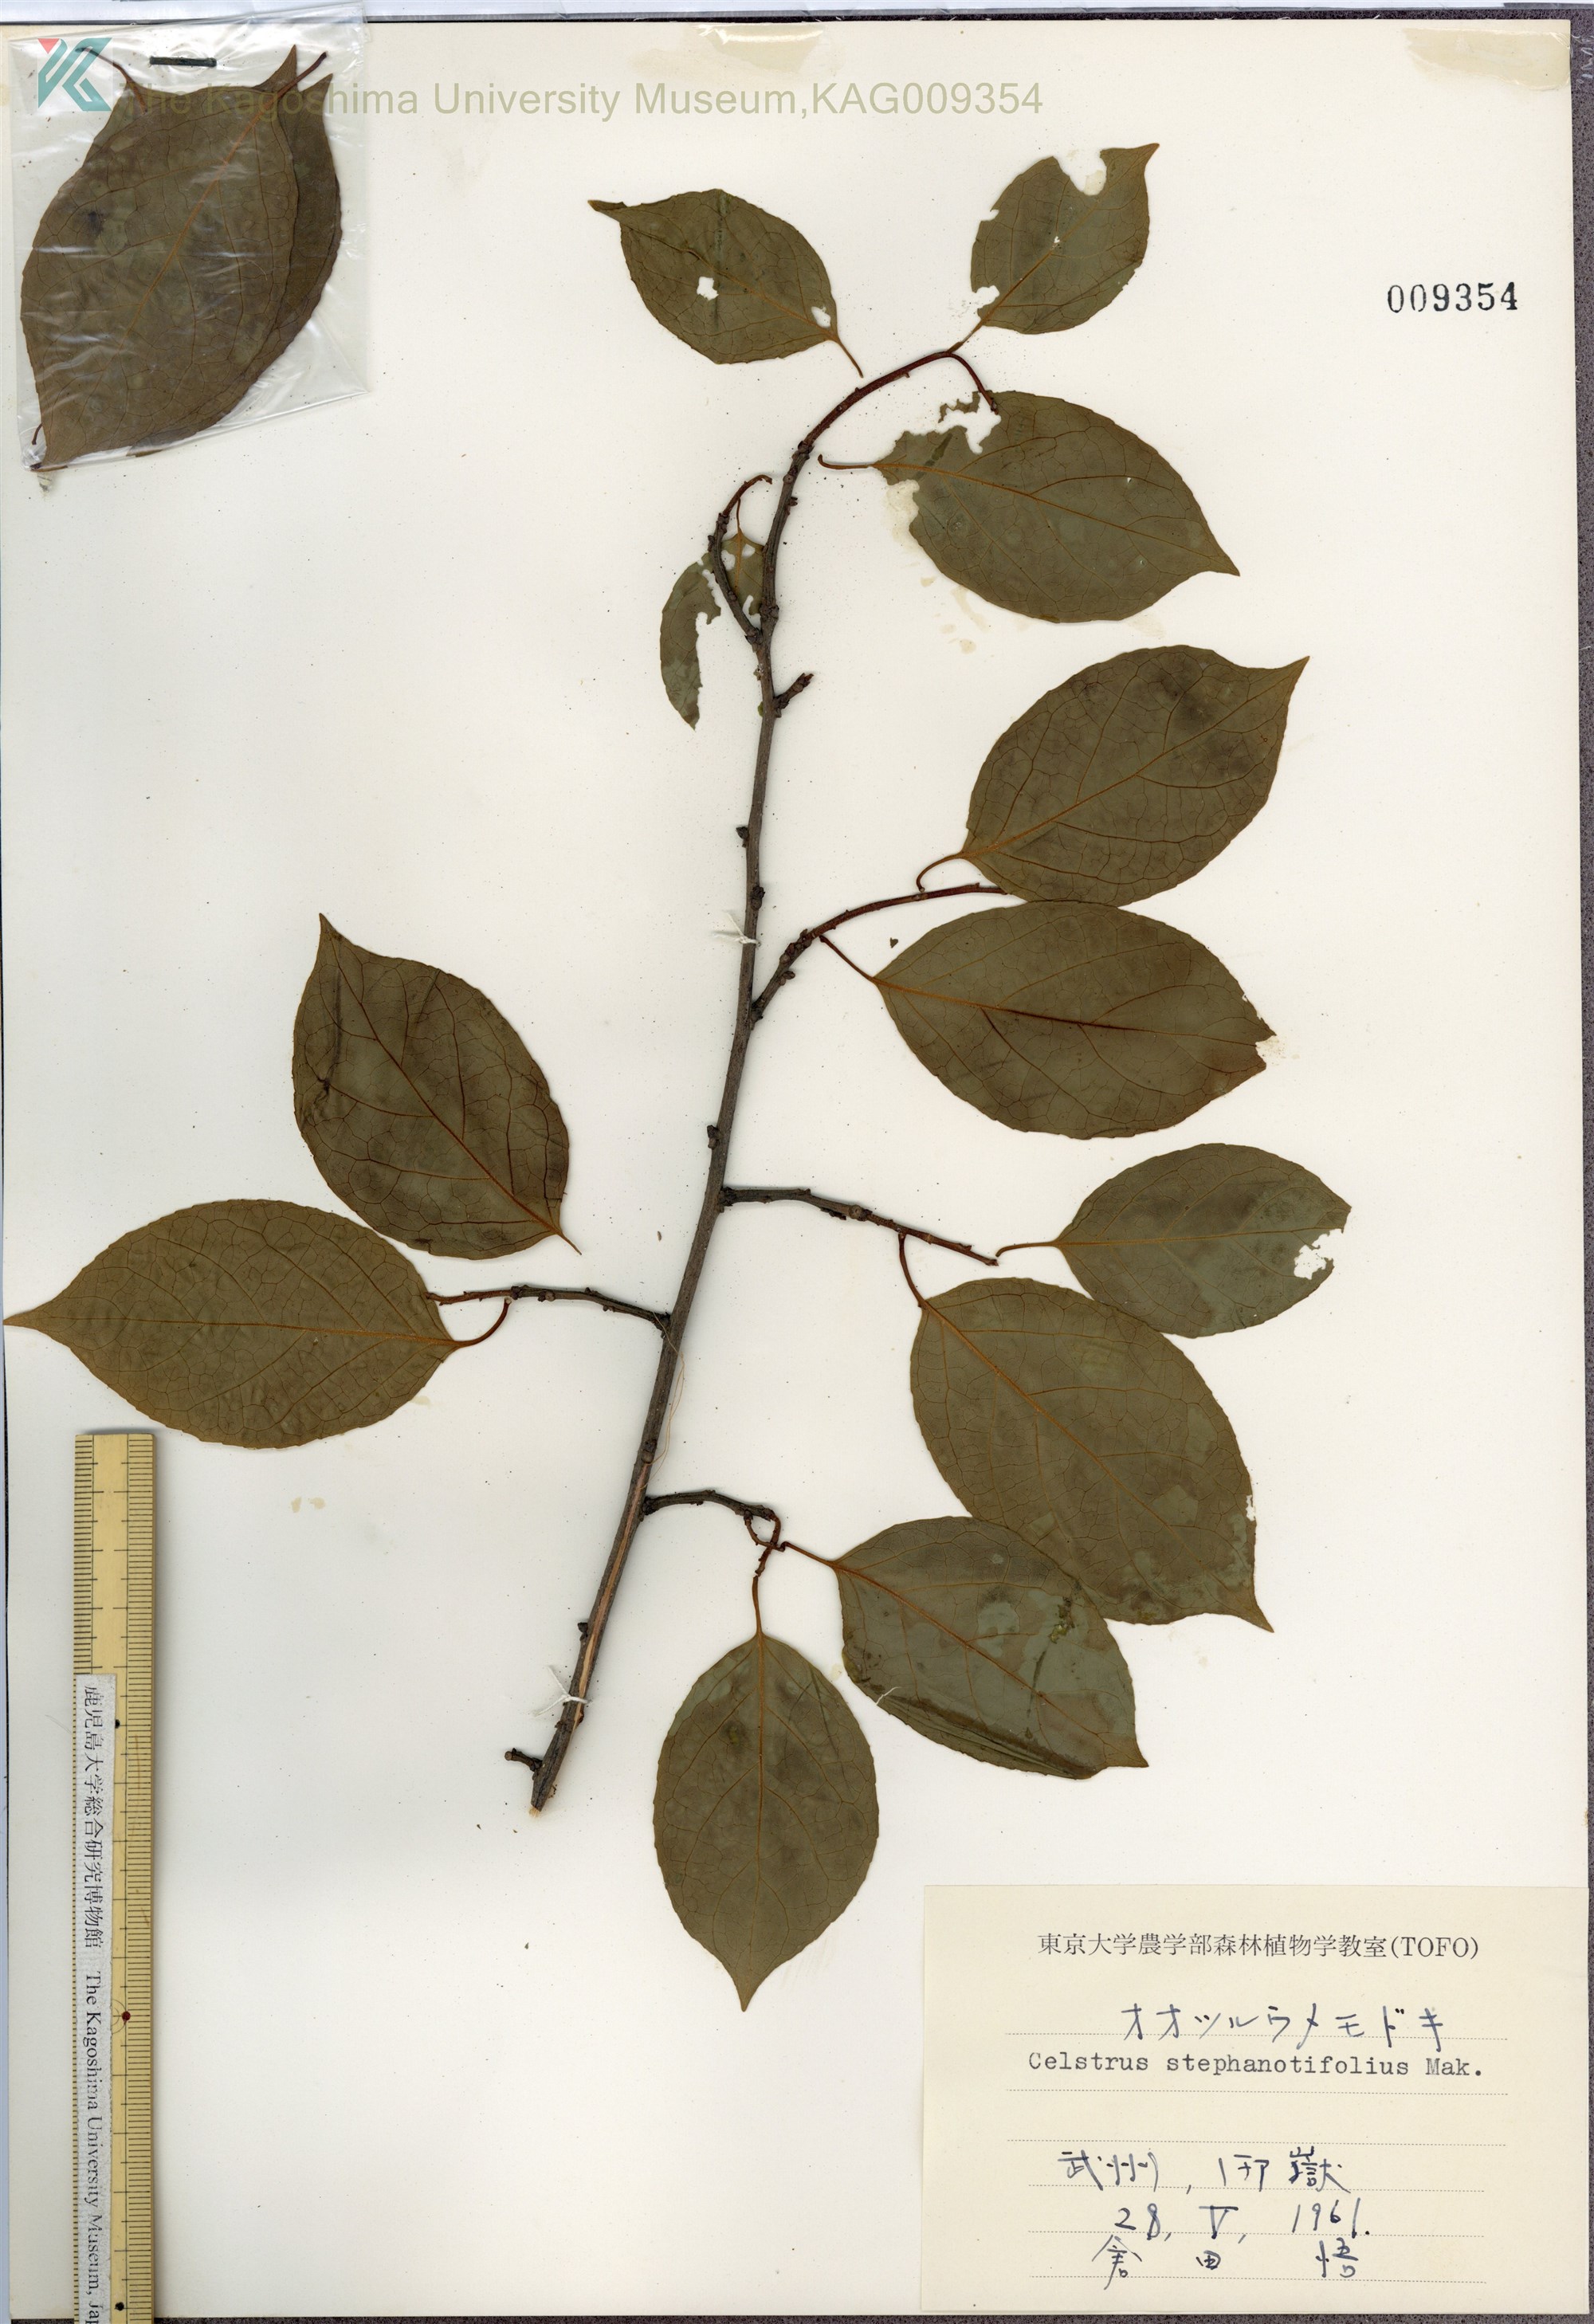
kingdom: Plantae
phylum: Tracheophyta
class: Magnoliopsida
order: Celastrales
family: Celastraceae
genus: Celastrus
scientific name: Celastrus stephanotifolius
